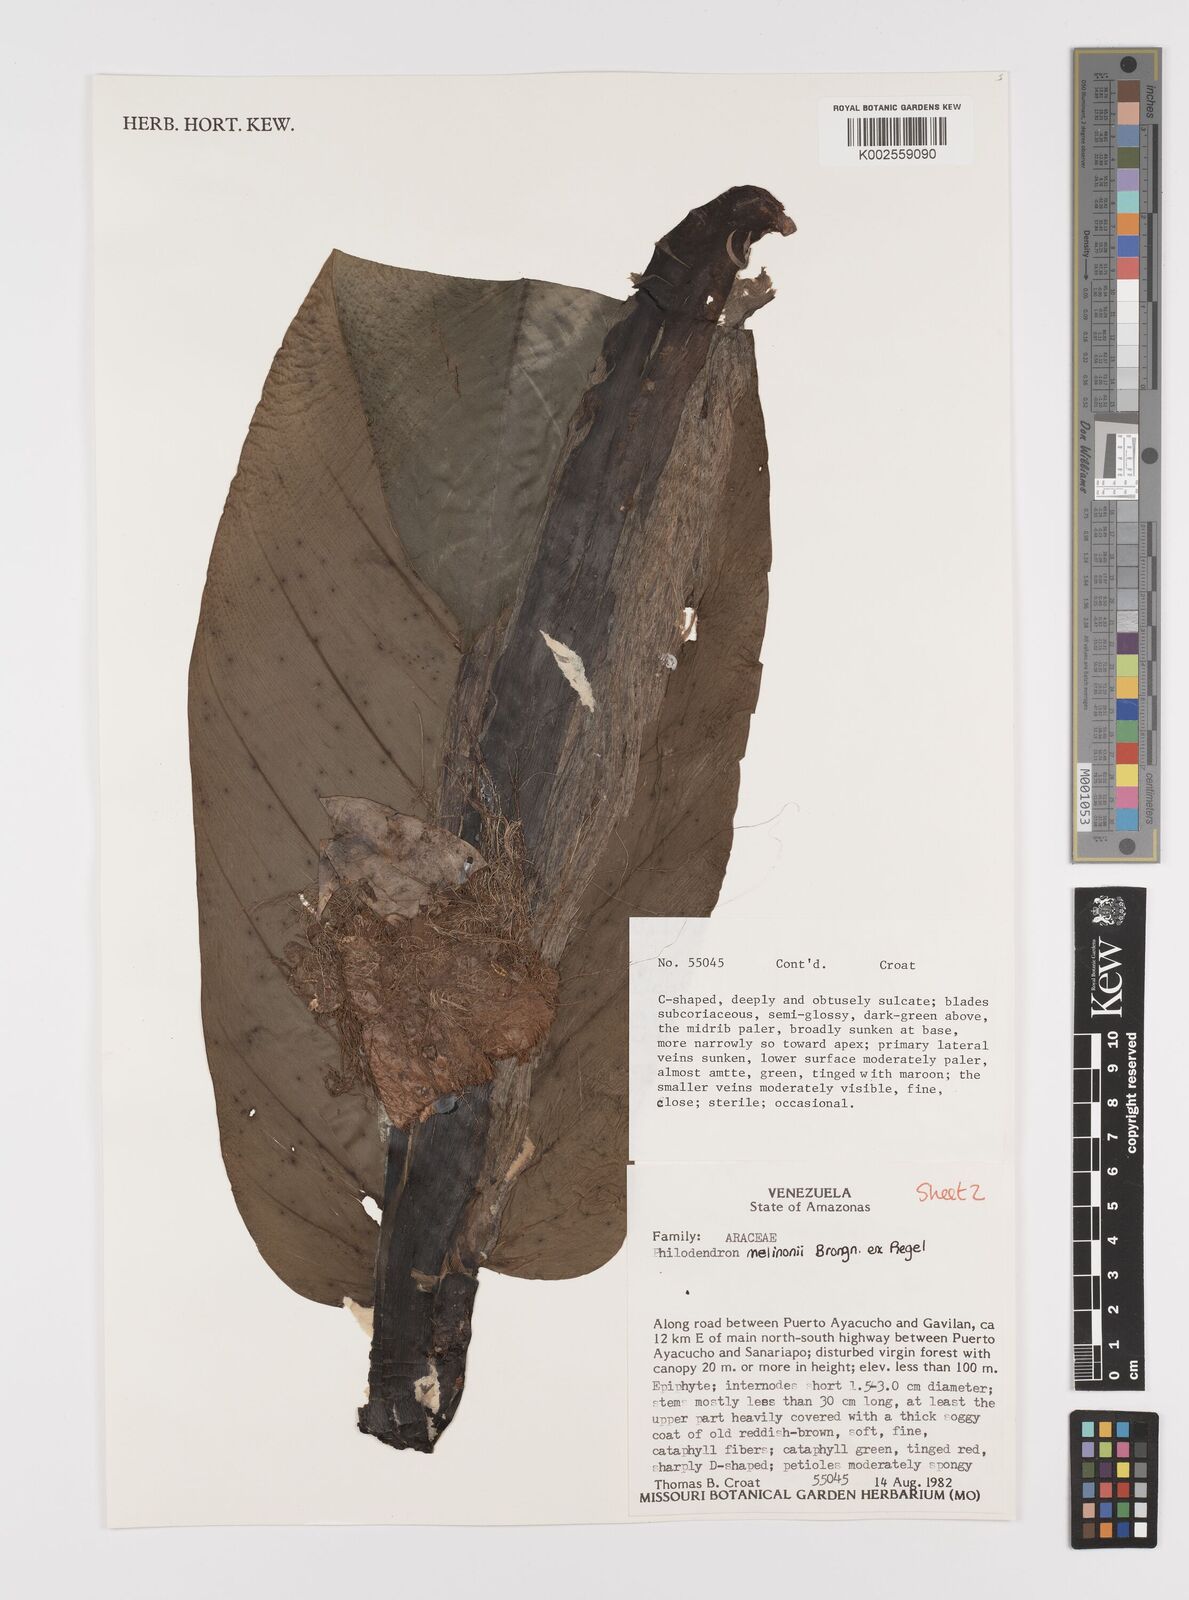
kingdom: Plantae
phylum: Tracheophyta
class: Liliopsida
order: Alismatales
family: Araceae
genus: Philodendron
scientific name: Philodendron melinonii
